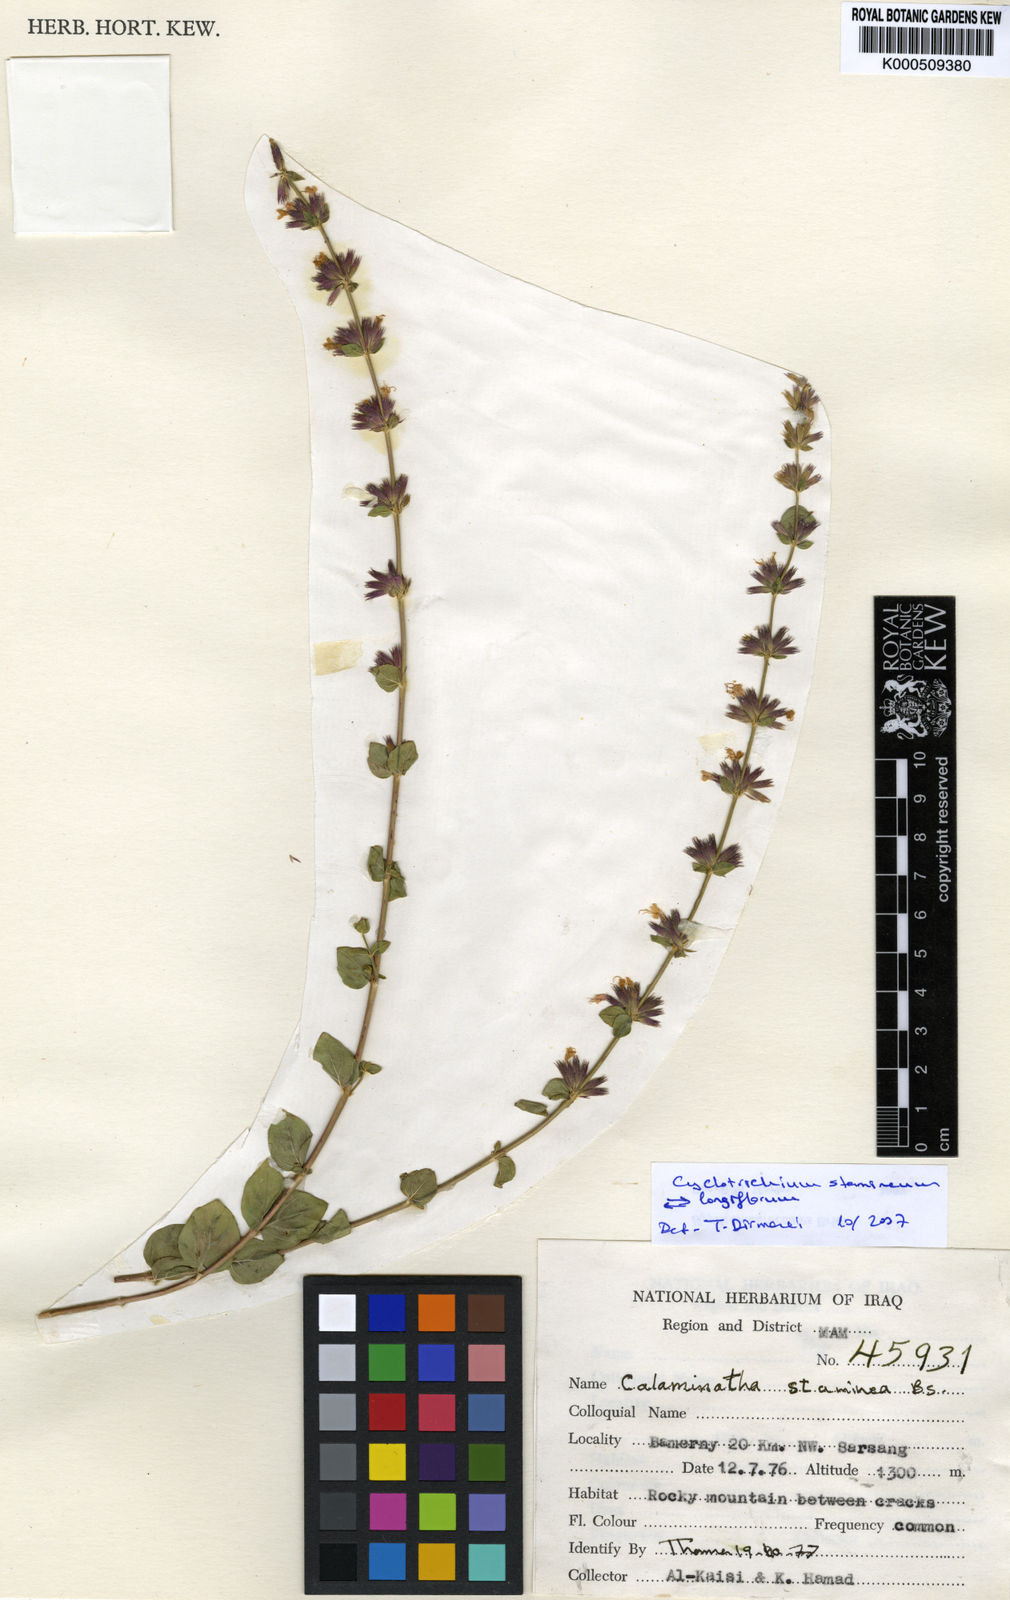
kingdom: Plantae
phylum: Tracheophyta
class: Magnoliopsida
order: Lamiales
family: Lamiaceae
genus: Cyclotrichium
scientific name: Cyclotrichium stamineum
